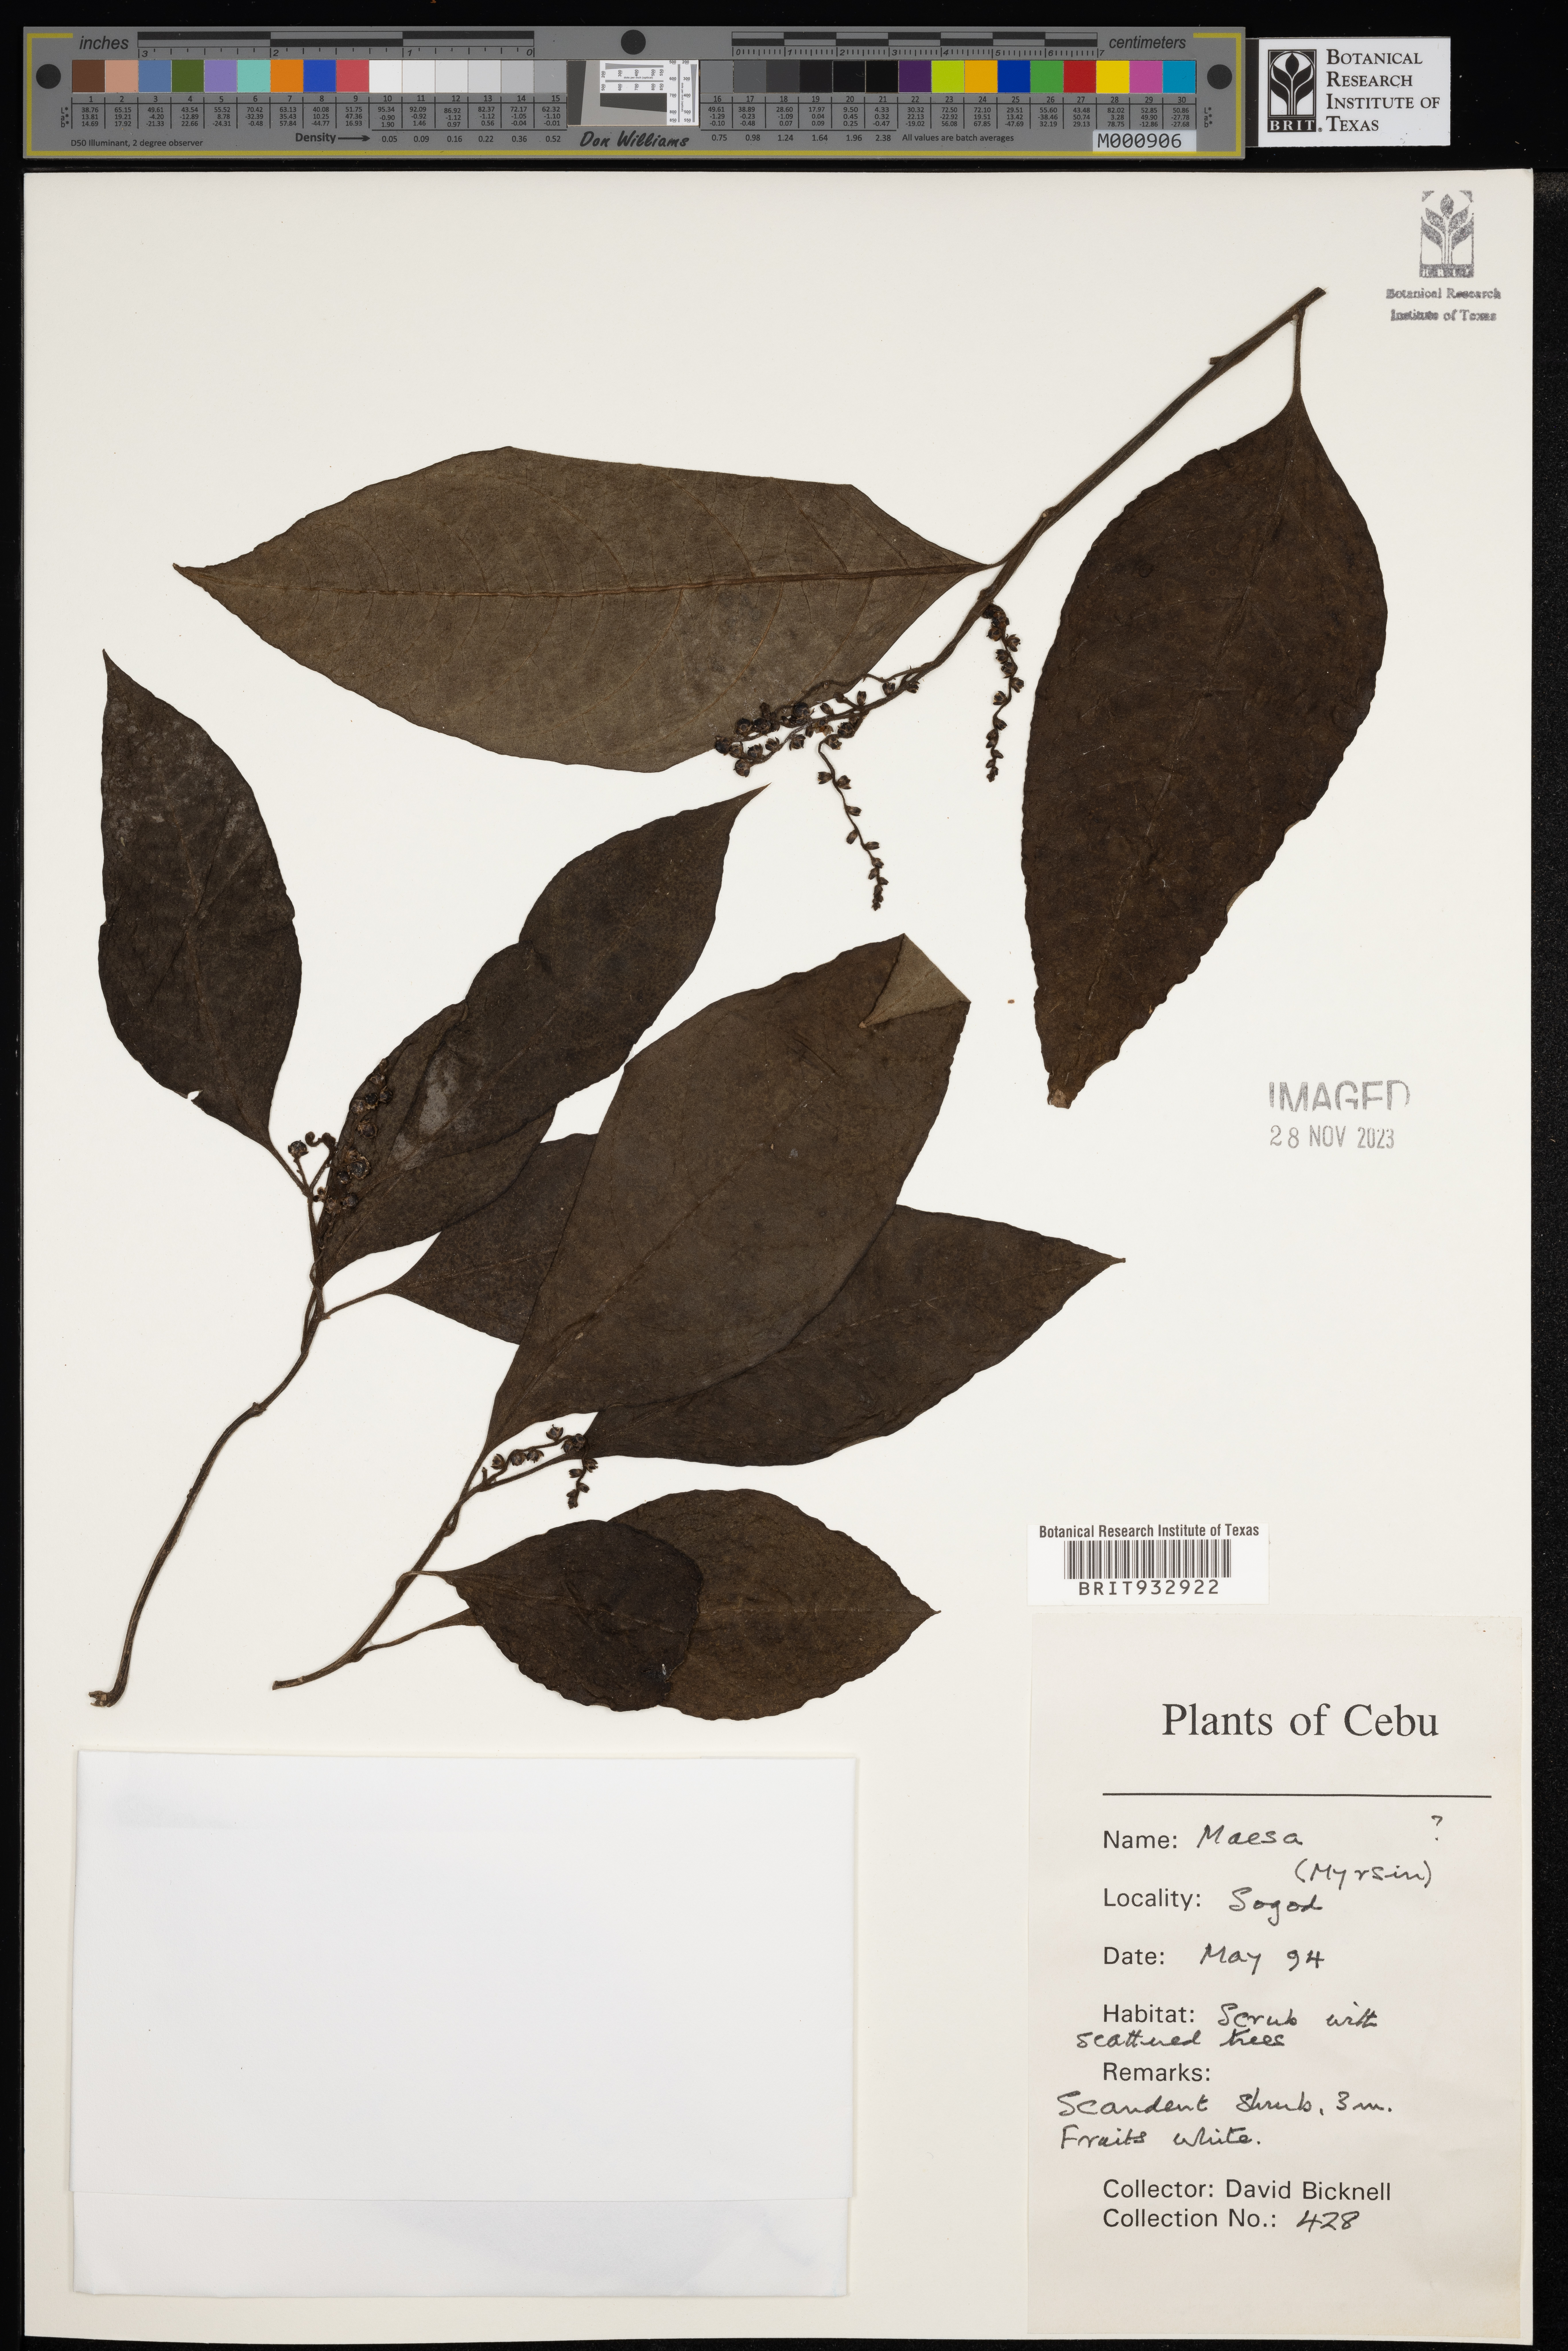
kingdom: Plantae
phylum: Tracheophyta
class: Magnoliopsida
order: Ericales
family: Primulaceae
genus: Maesa
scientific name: Maesa
